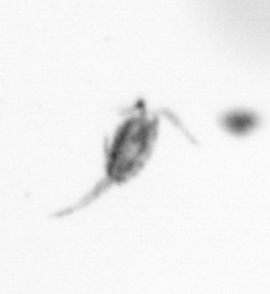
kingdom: Animalia
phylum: Arthropoda
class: Copepoda
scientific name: Copepoda
